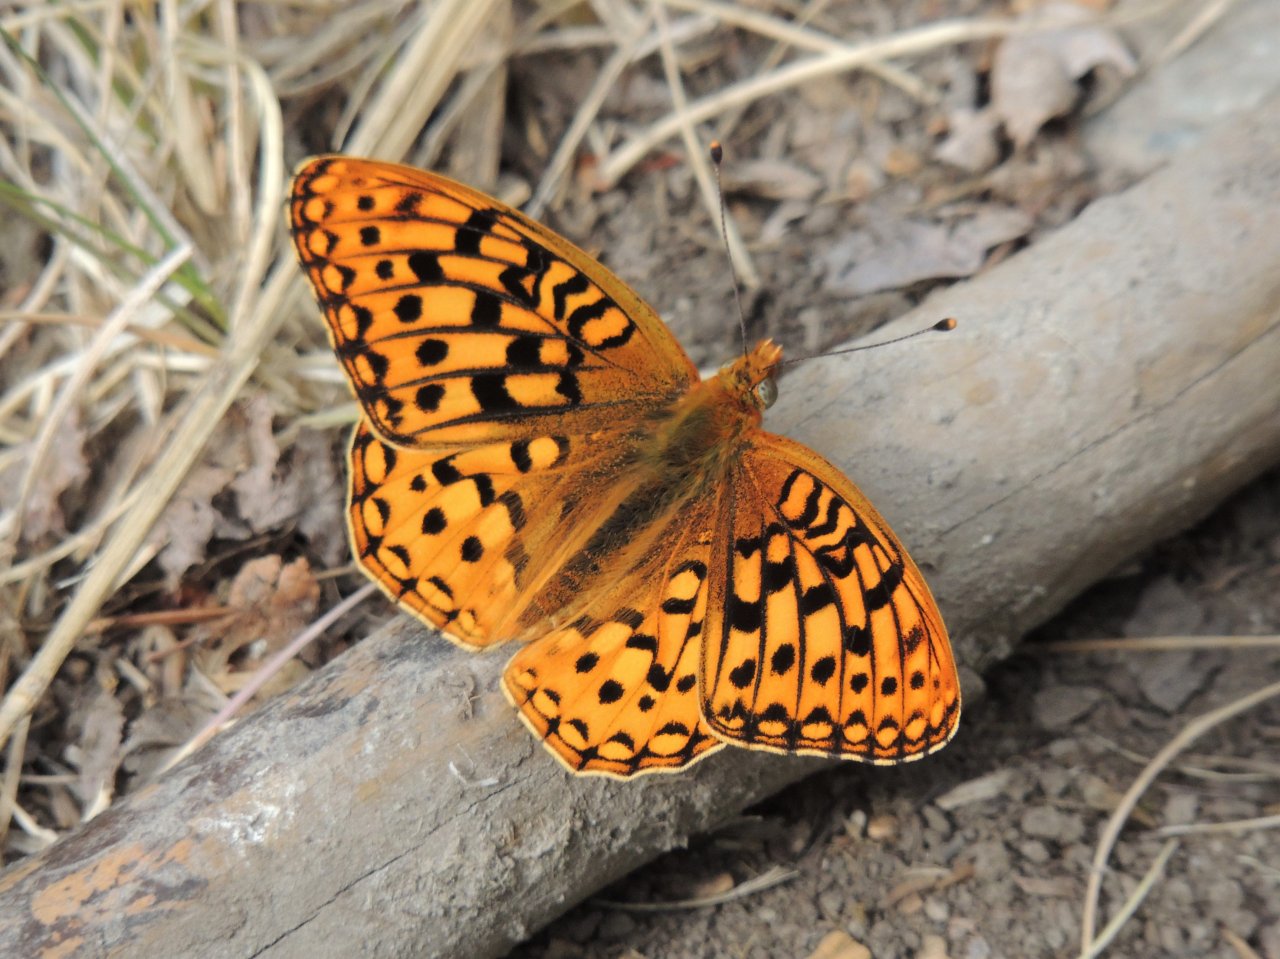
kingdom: Animalia
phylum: Arthropoda
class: Insecta
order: Lepidoptera
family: Nymphalidae
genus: Speyeria
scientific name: Speyeria zerene
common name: Zerene Fritillary
